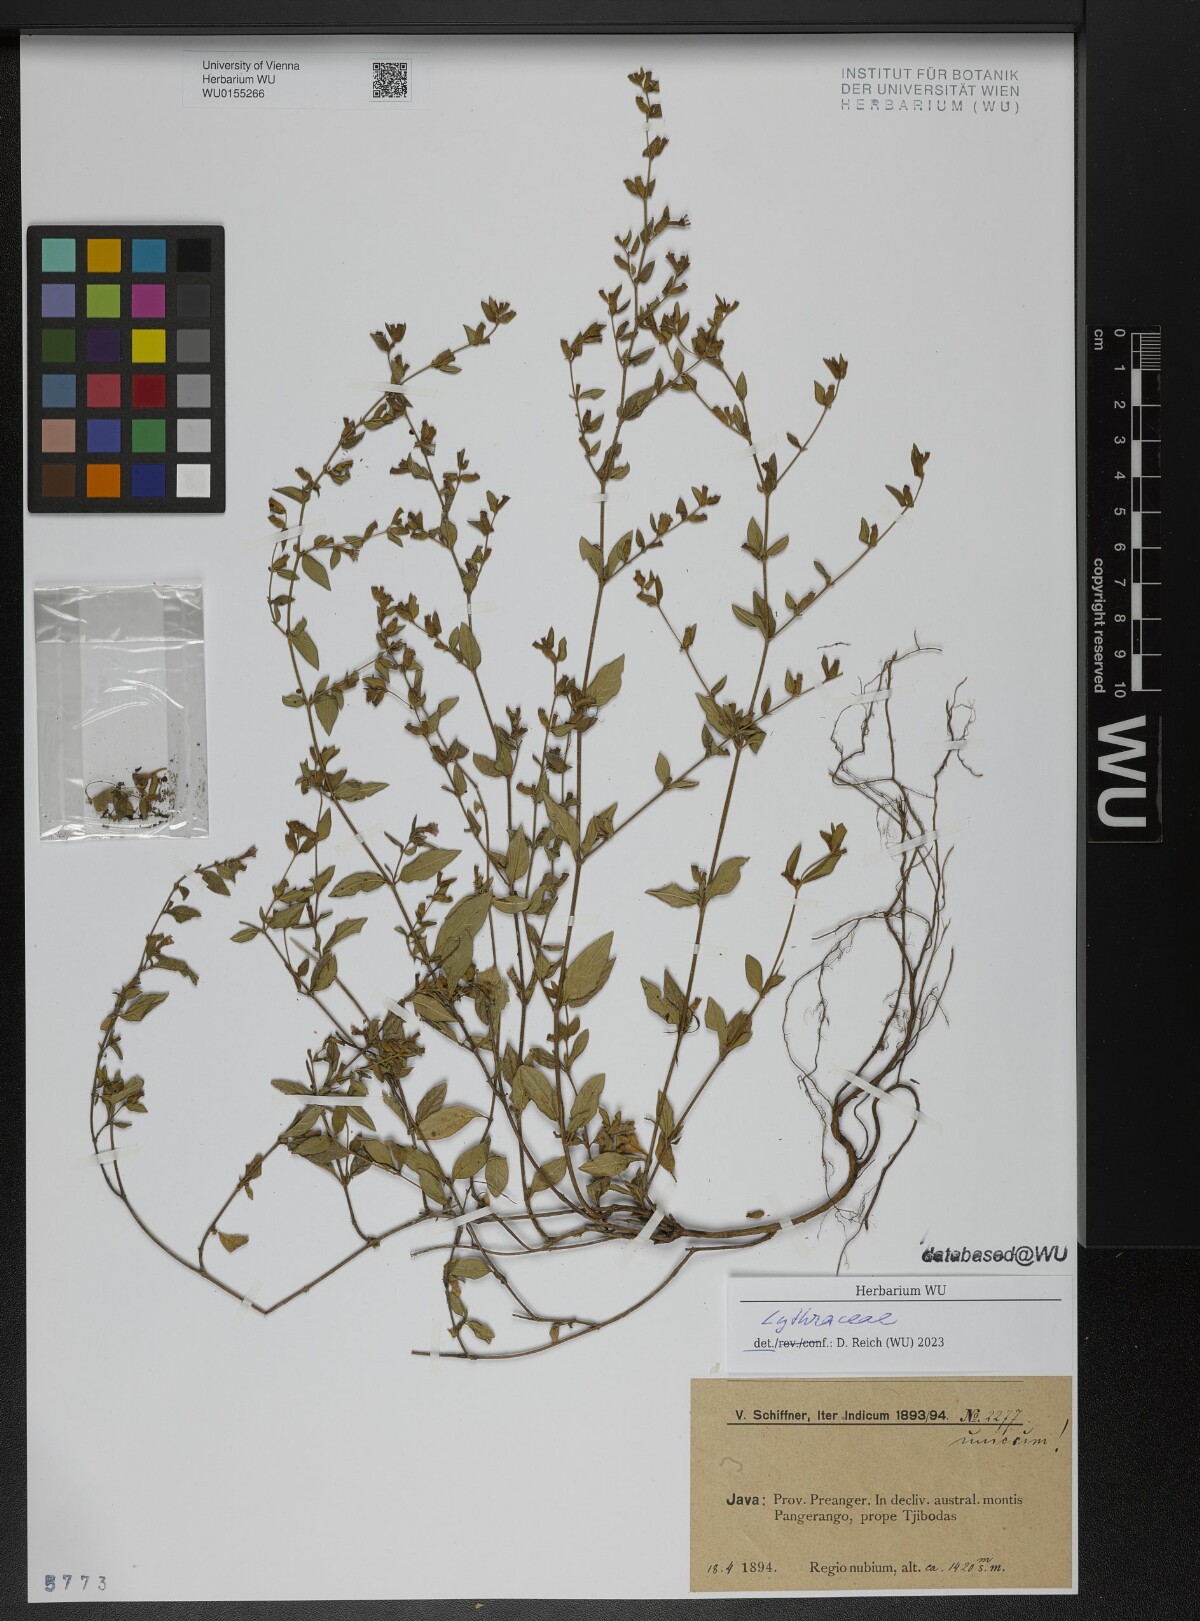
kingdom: Plantae
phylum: Tracheophyta
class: Magnoliopsida
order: Myrtales
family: Lythraceae
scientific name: Lythraceae
